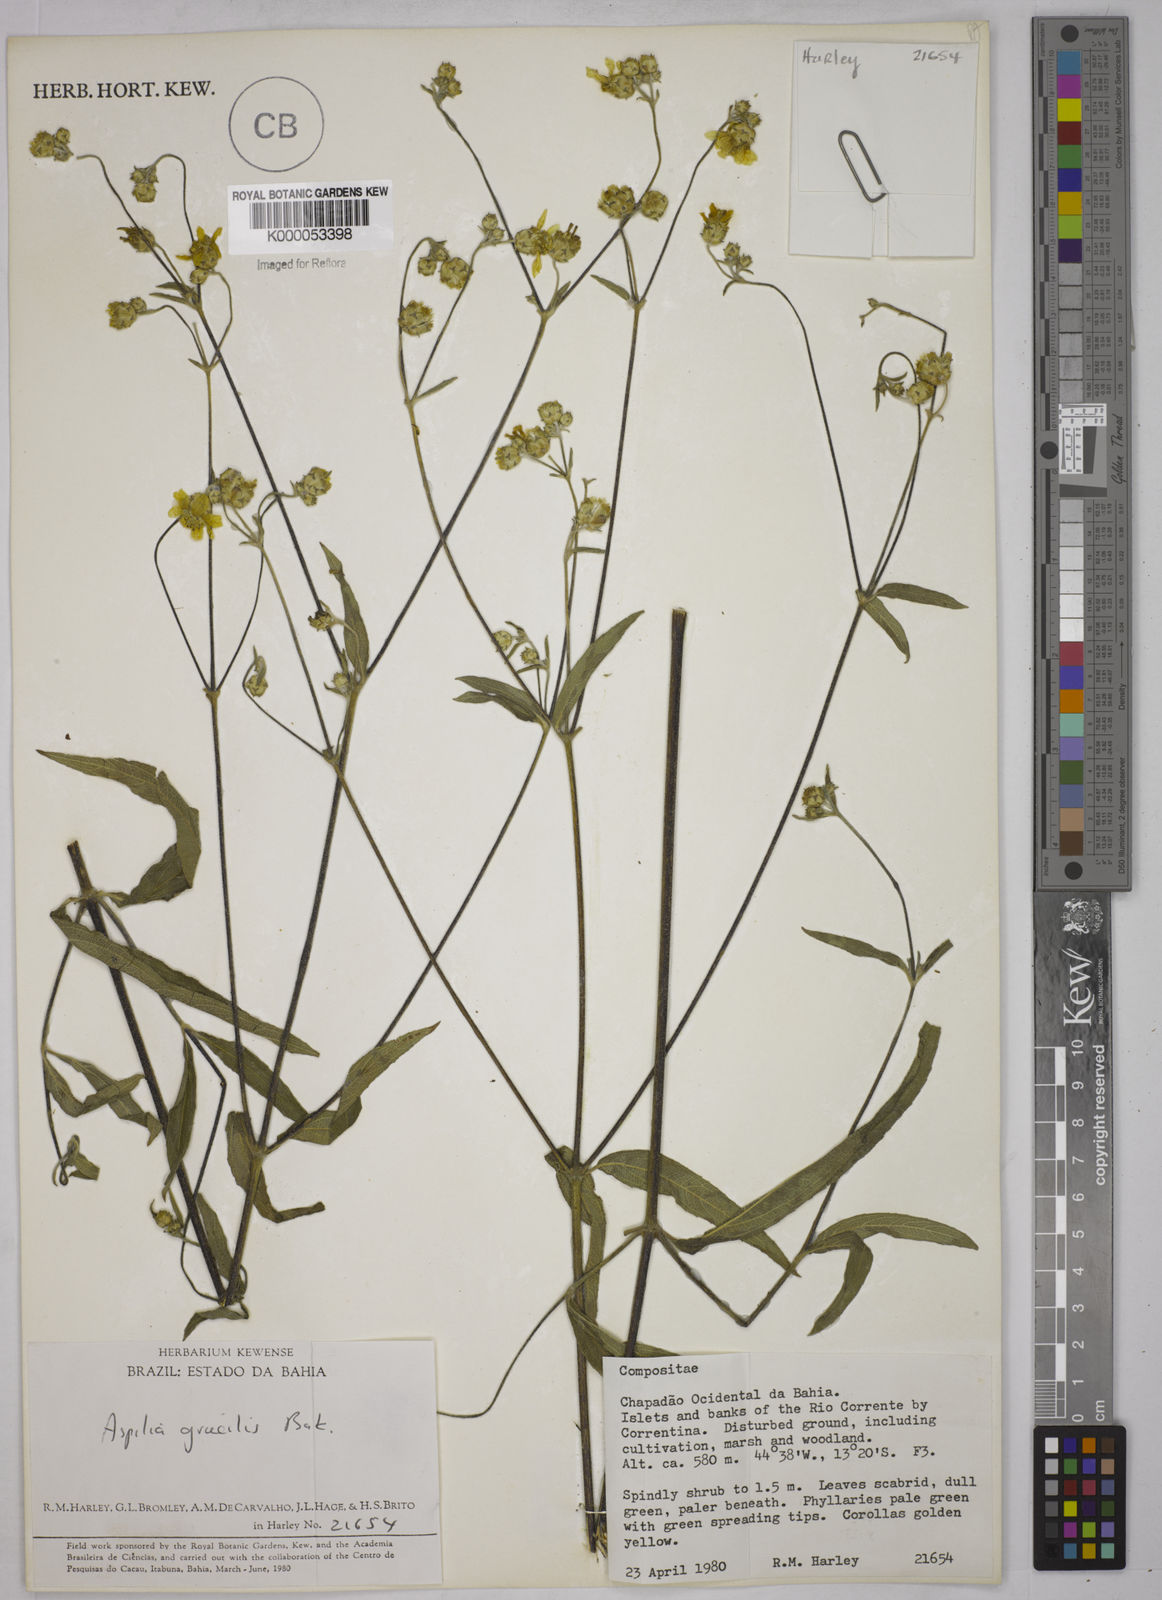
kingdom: Plantae
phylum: Tracheophyta
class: Magnoliopsida
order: Asterales
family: Asteraceae
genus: Wedelia
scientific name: Wedelia floribunda
